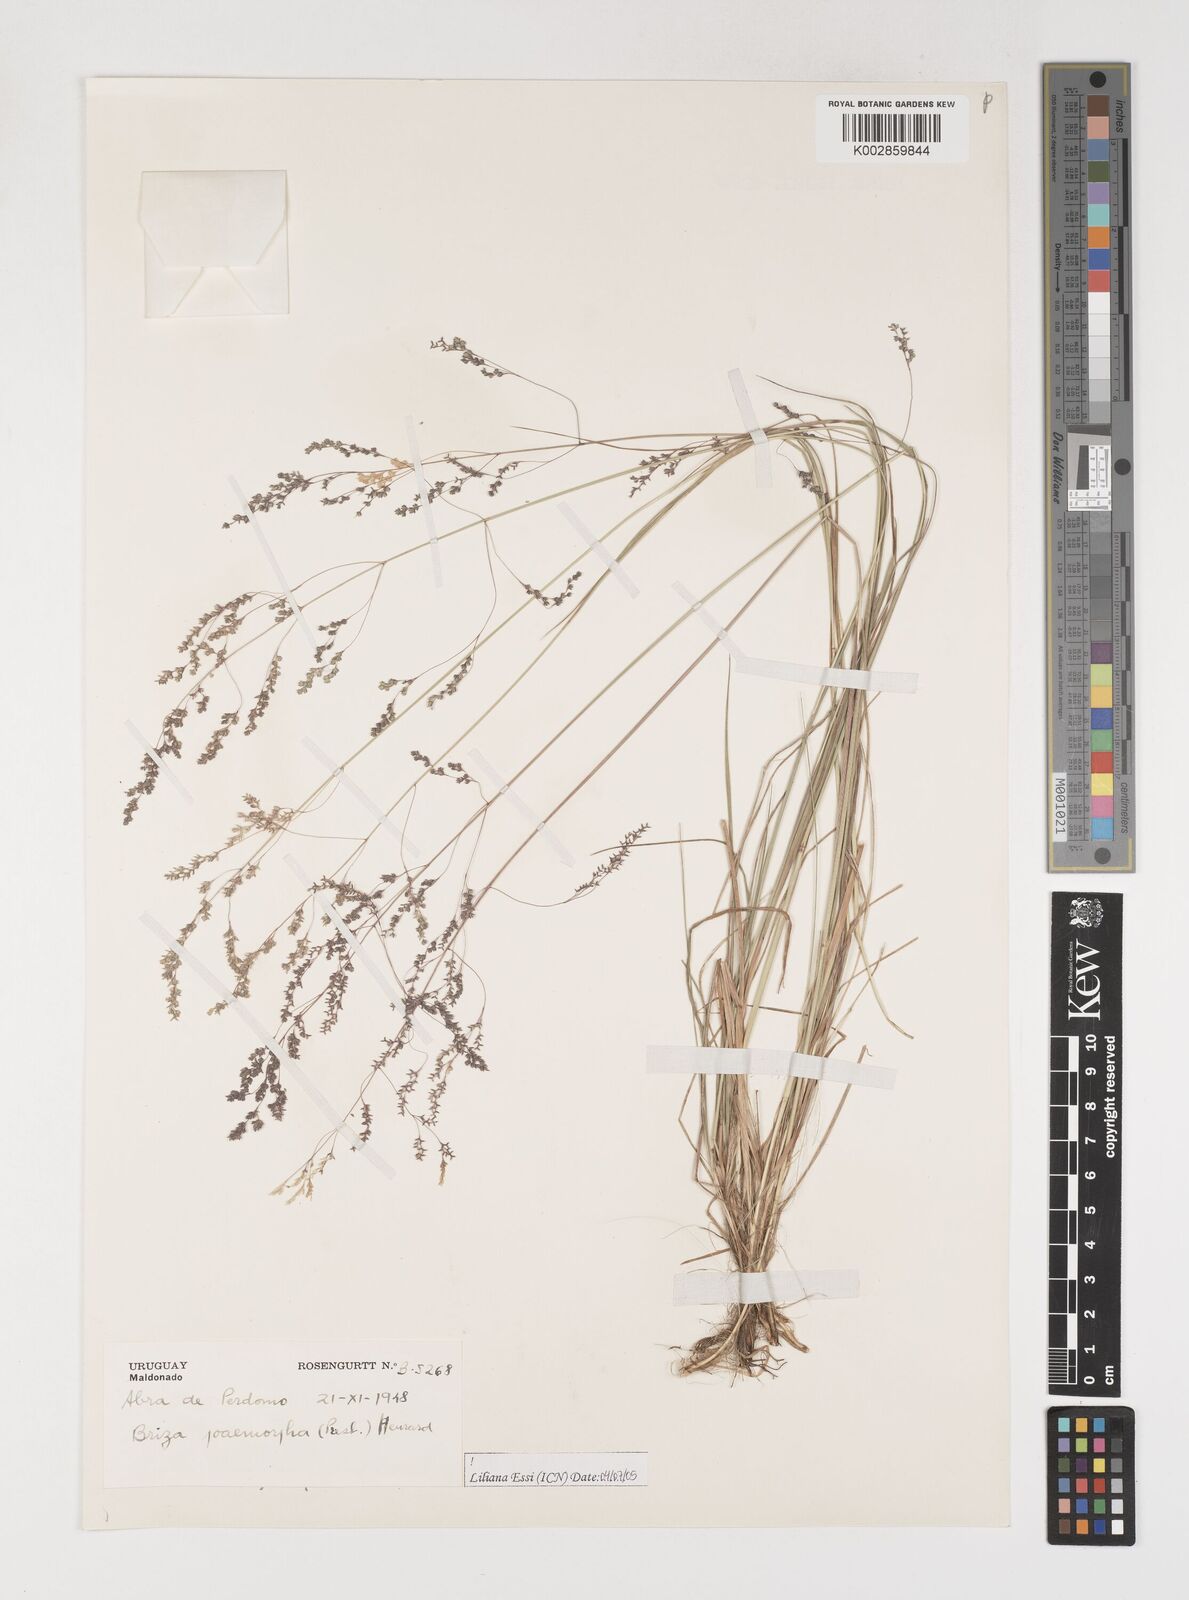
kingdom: Plantae
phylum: Tracheophyta
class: Liliopsida
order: Poales
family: Poaceae
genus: Microbriza
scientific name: Microbriza poimorpha
